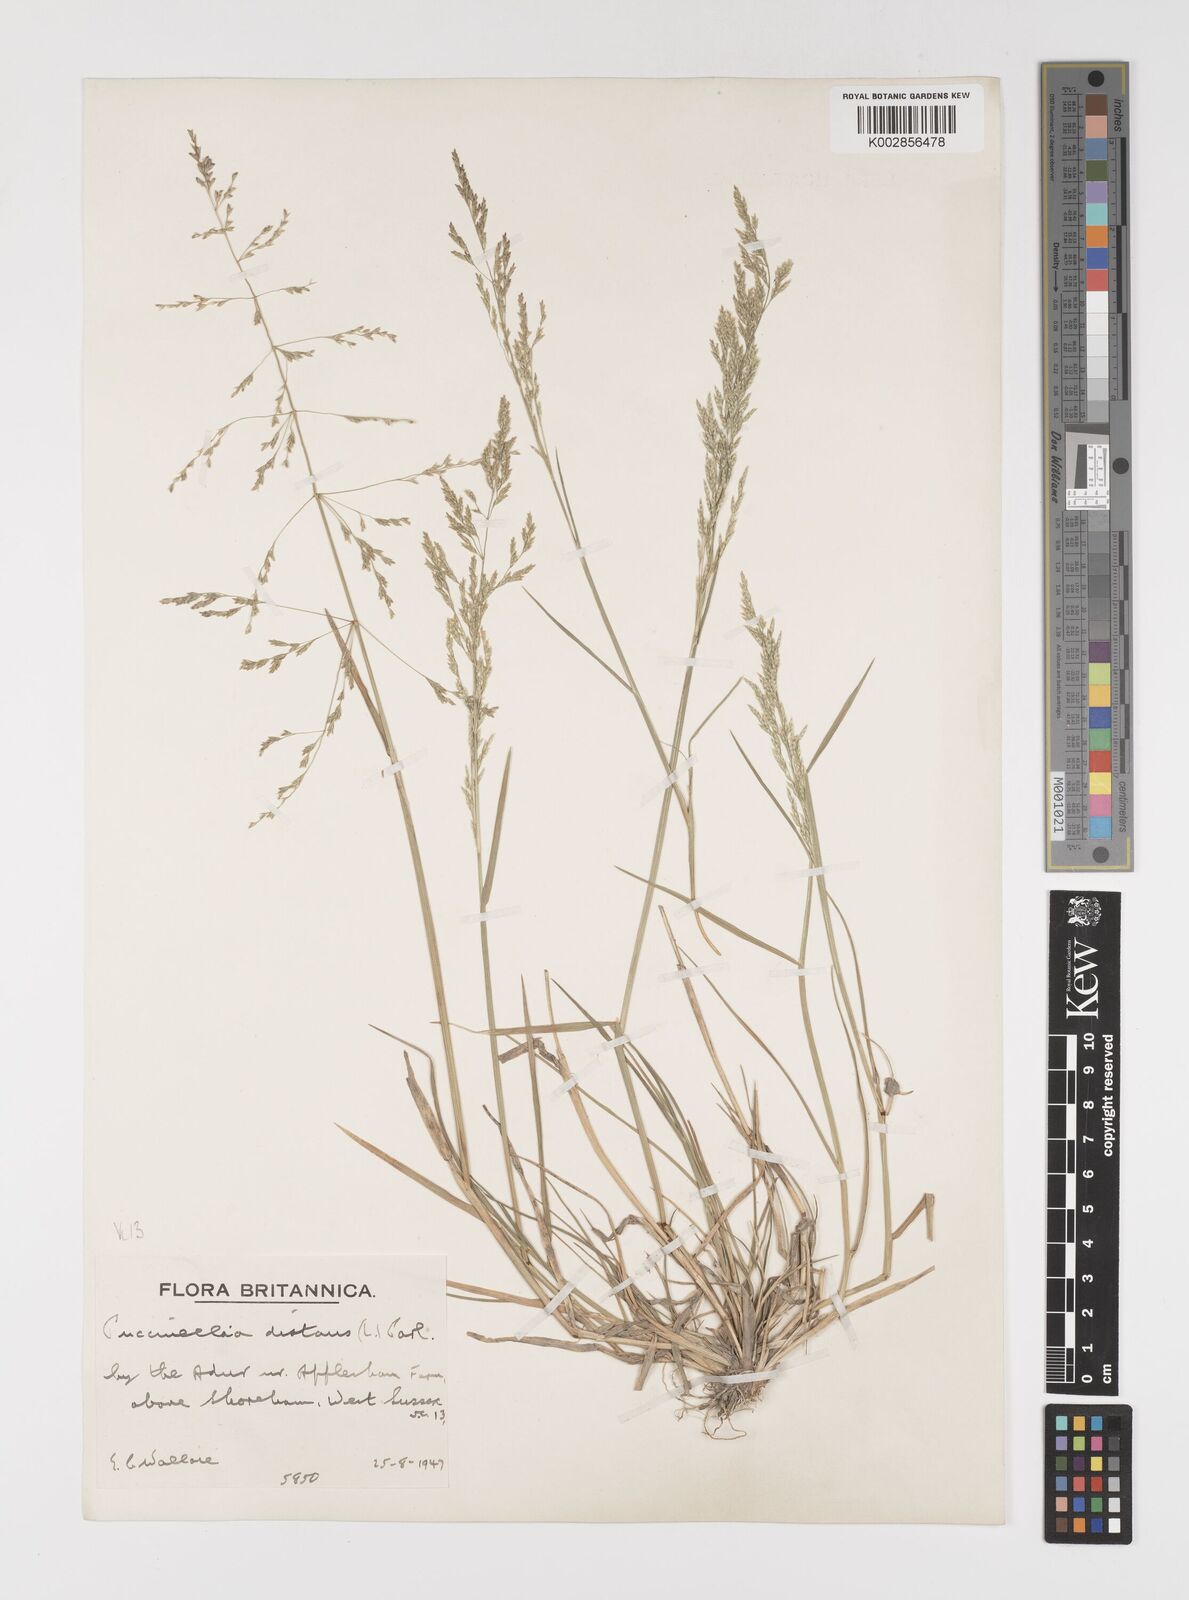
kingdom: Plantae
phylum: Tracheophyta
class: Liliopsida
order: Poales
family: Poaceae
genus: Puccinellia
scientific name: Puccinellia distans
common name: Weeping alkaligrass
